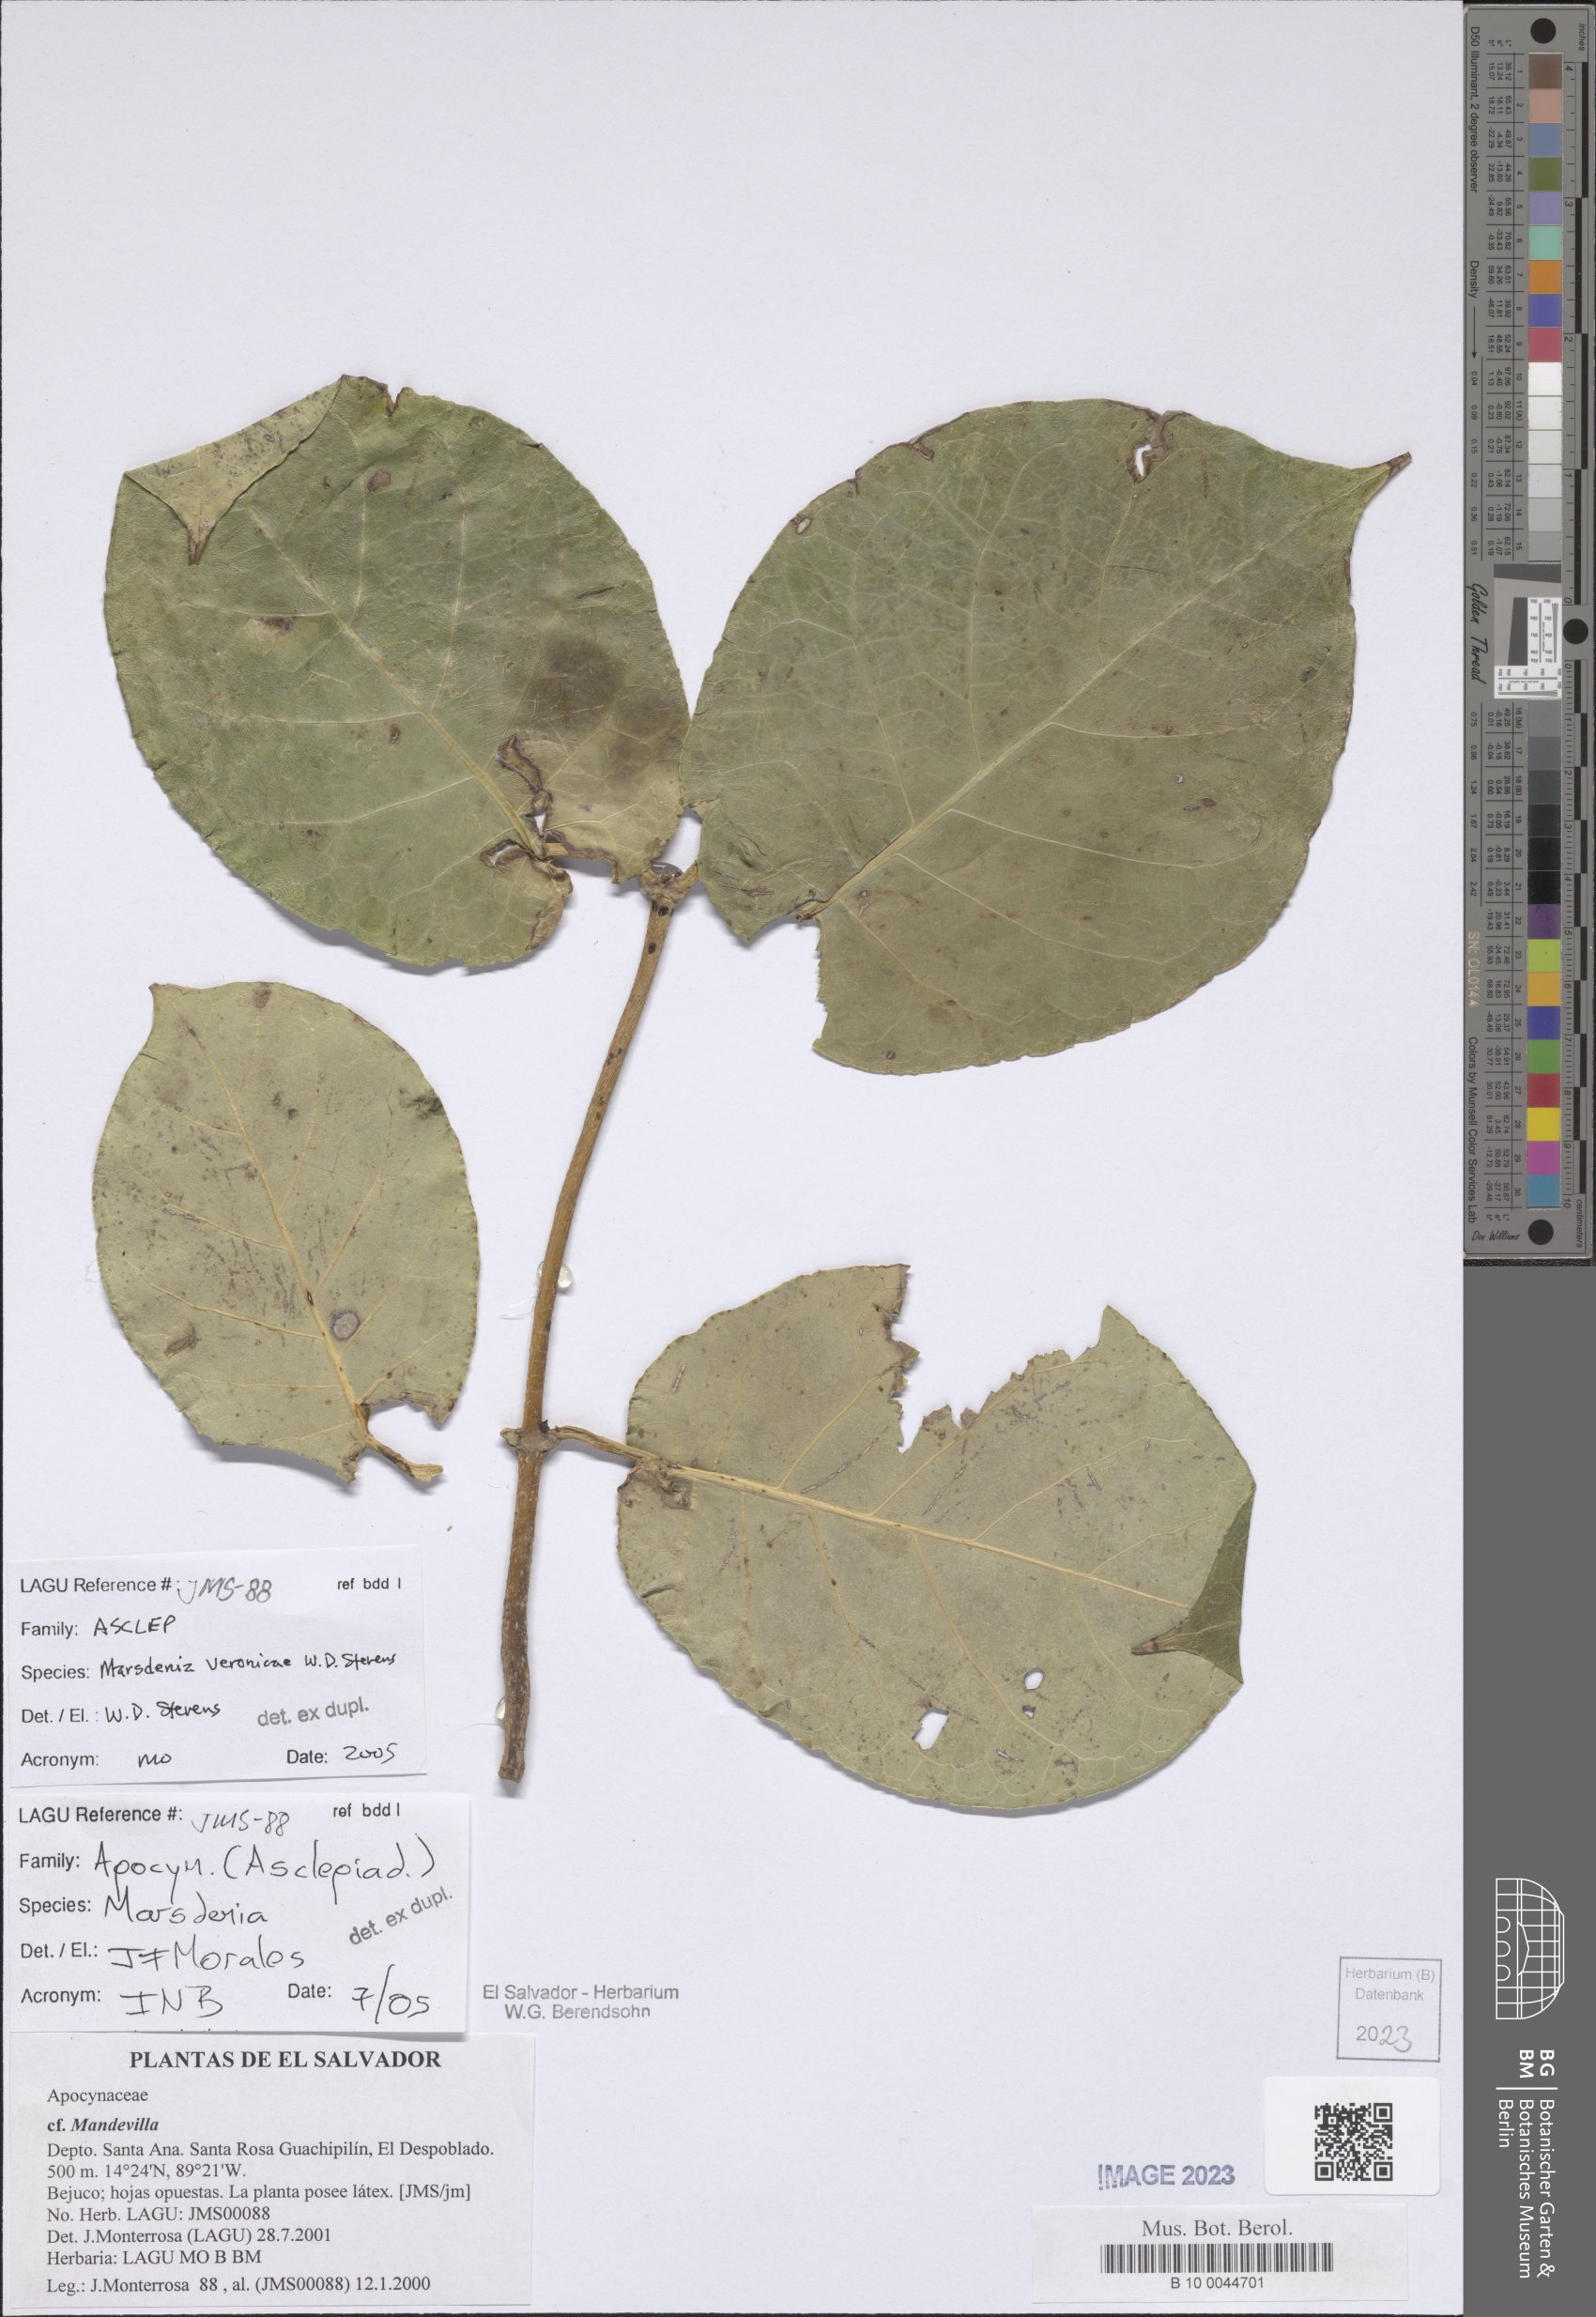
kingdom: Plantae
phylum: Tracheophyta
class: Magnoliopsida
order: Gentianales
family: Apocynaceae
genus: Ruehssia
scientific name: Ruehssia veronicae
